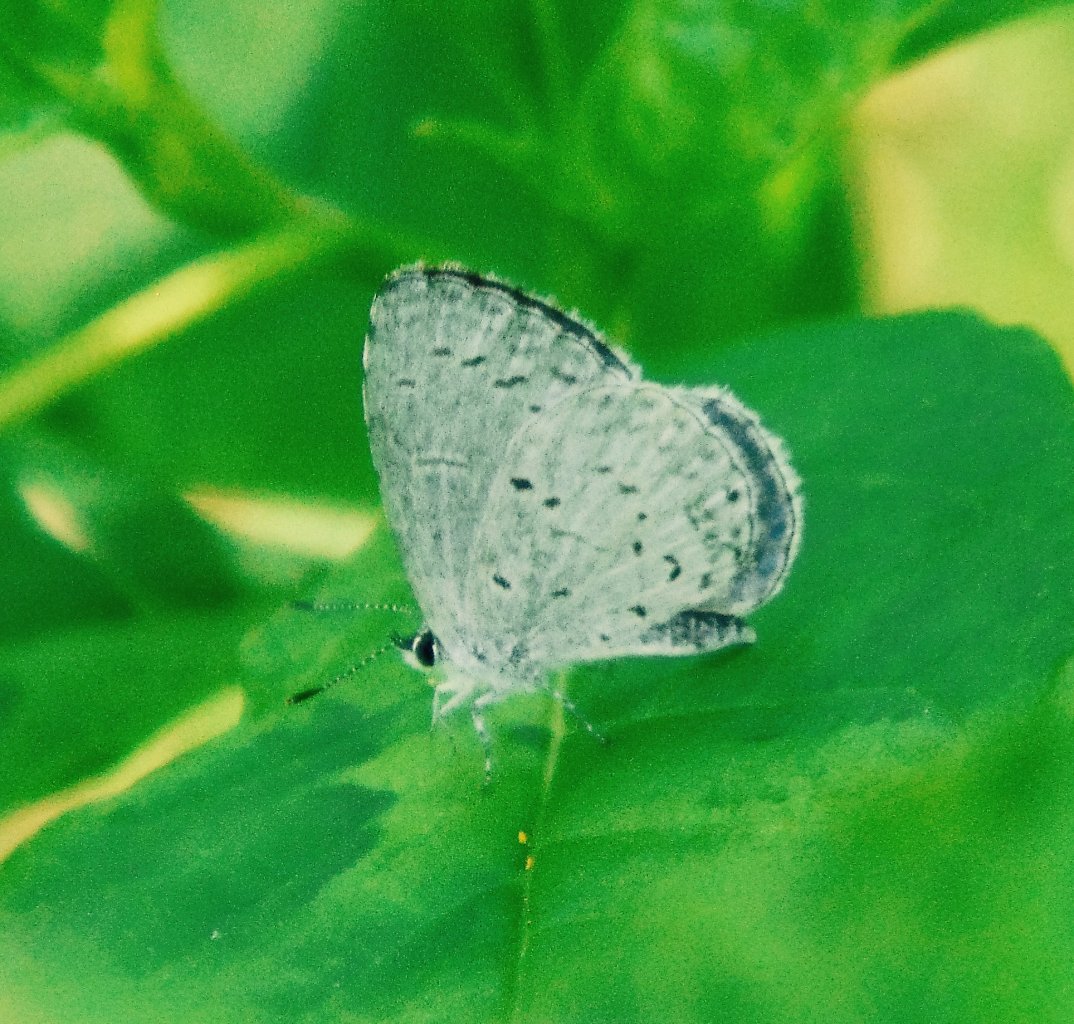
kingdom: Animalia
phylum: Arthropoda
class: Insecta
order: Lepidoptera
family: Lycaenidae
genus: Cyaniris
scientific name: Cyaniris neglecta
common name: Summer Azure
